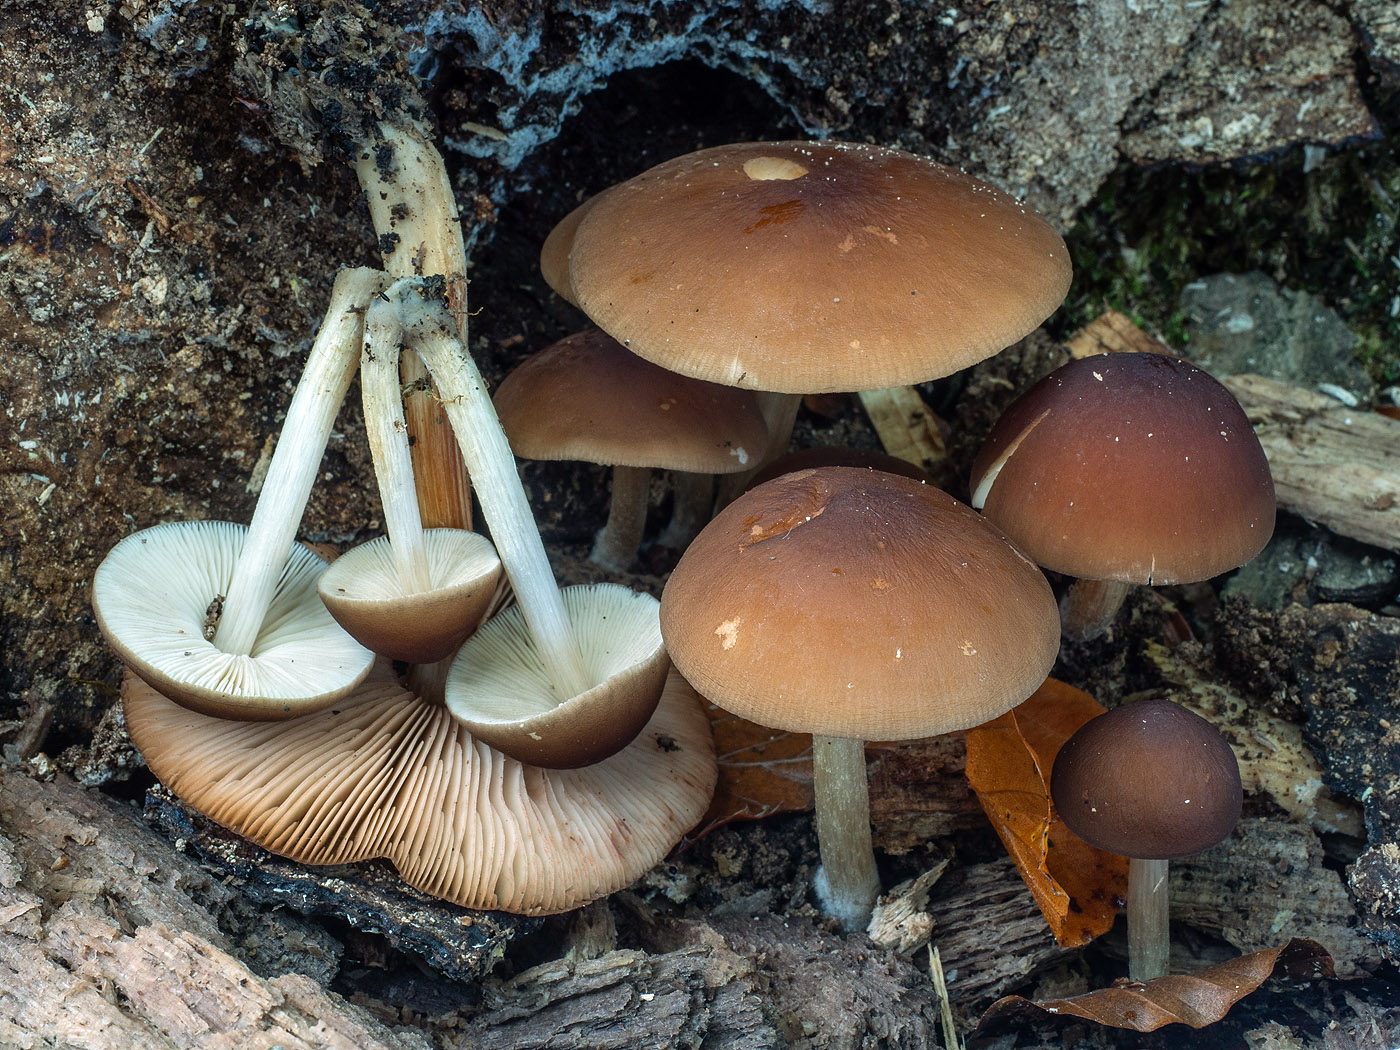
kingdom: Fungi
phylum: Basidiomycota
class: Agaricomycetes
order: Agaricales
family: Pluteaceae
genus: Pluteus
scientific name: Pluteus phlebophorus
